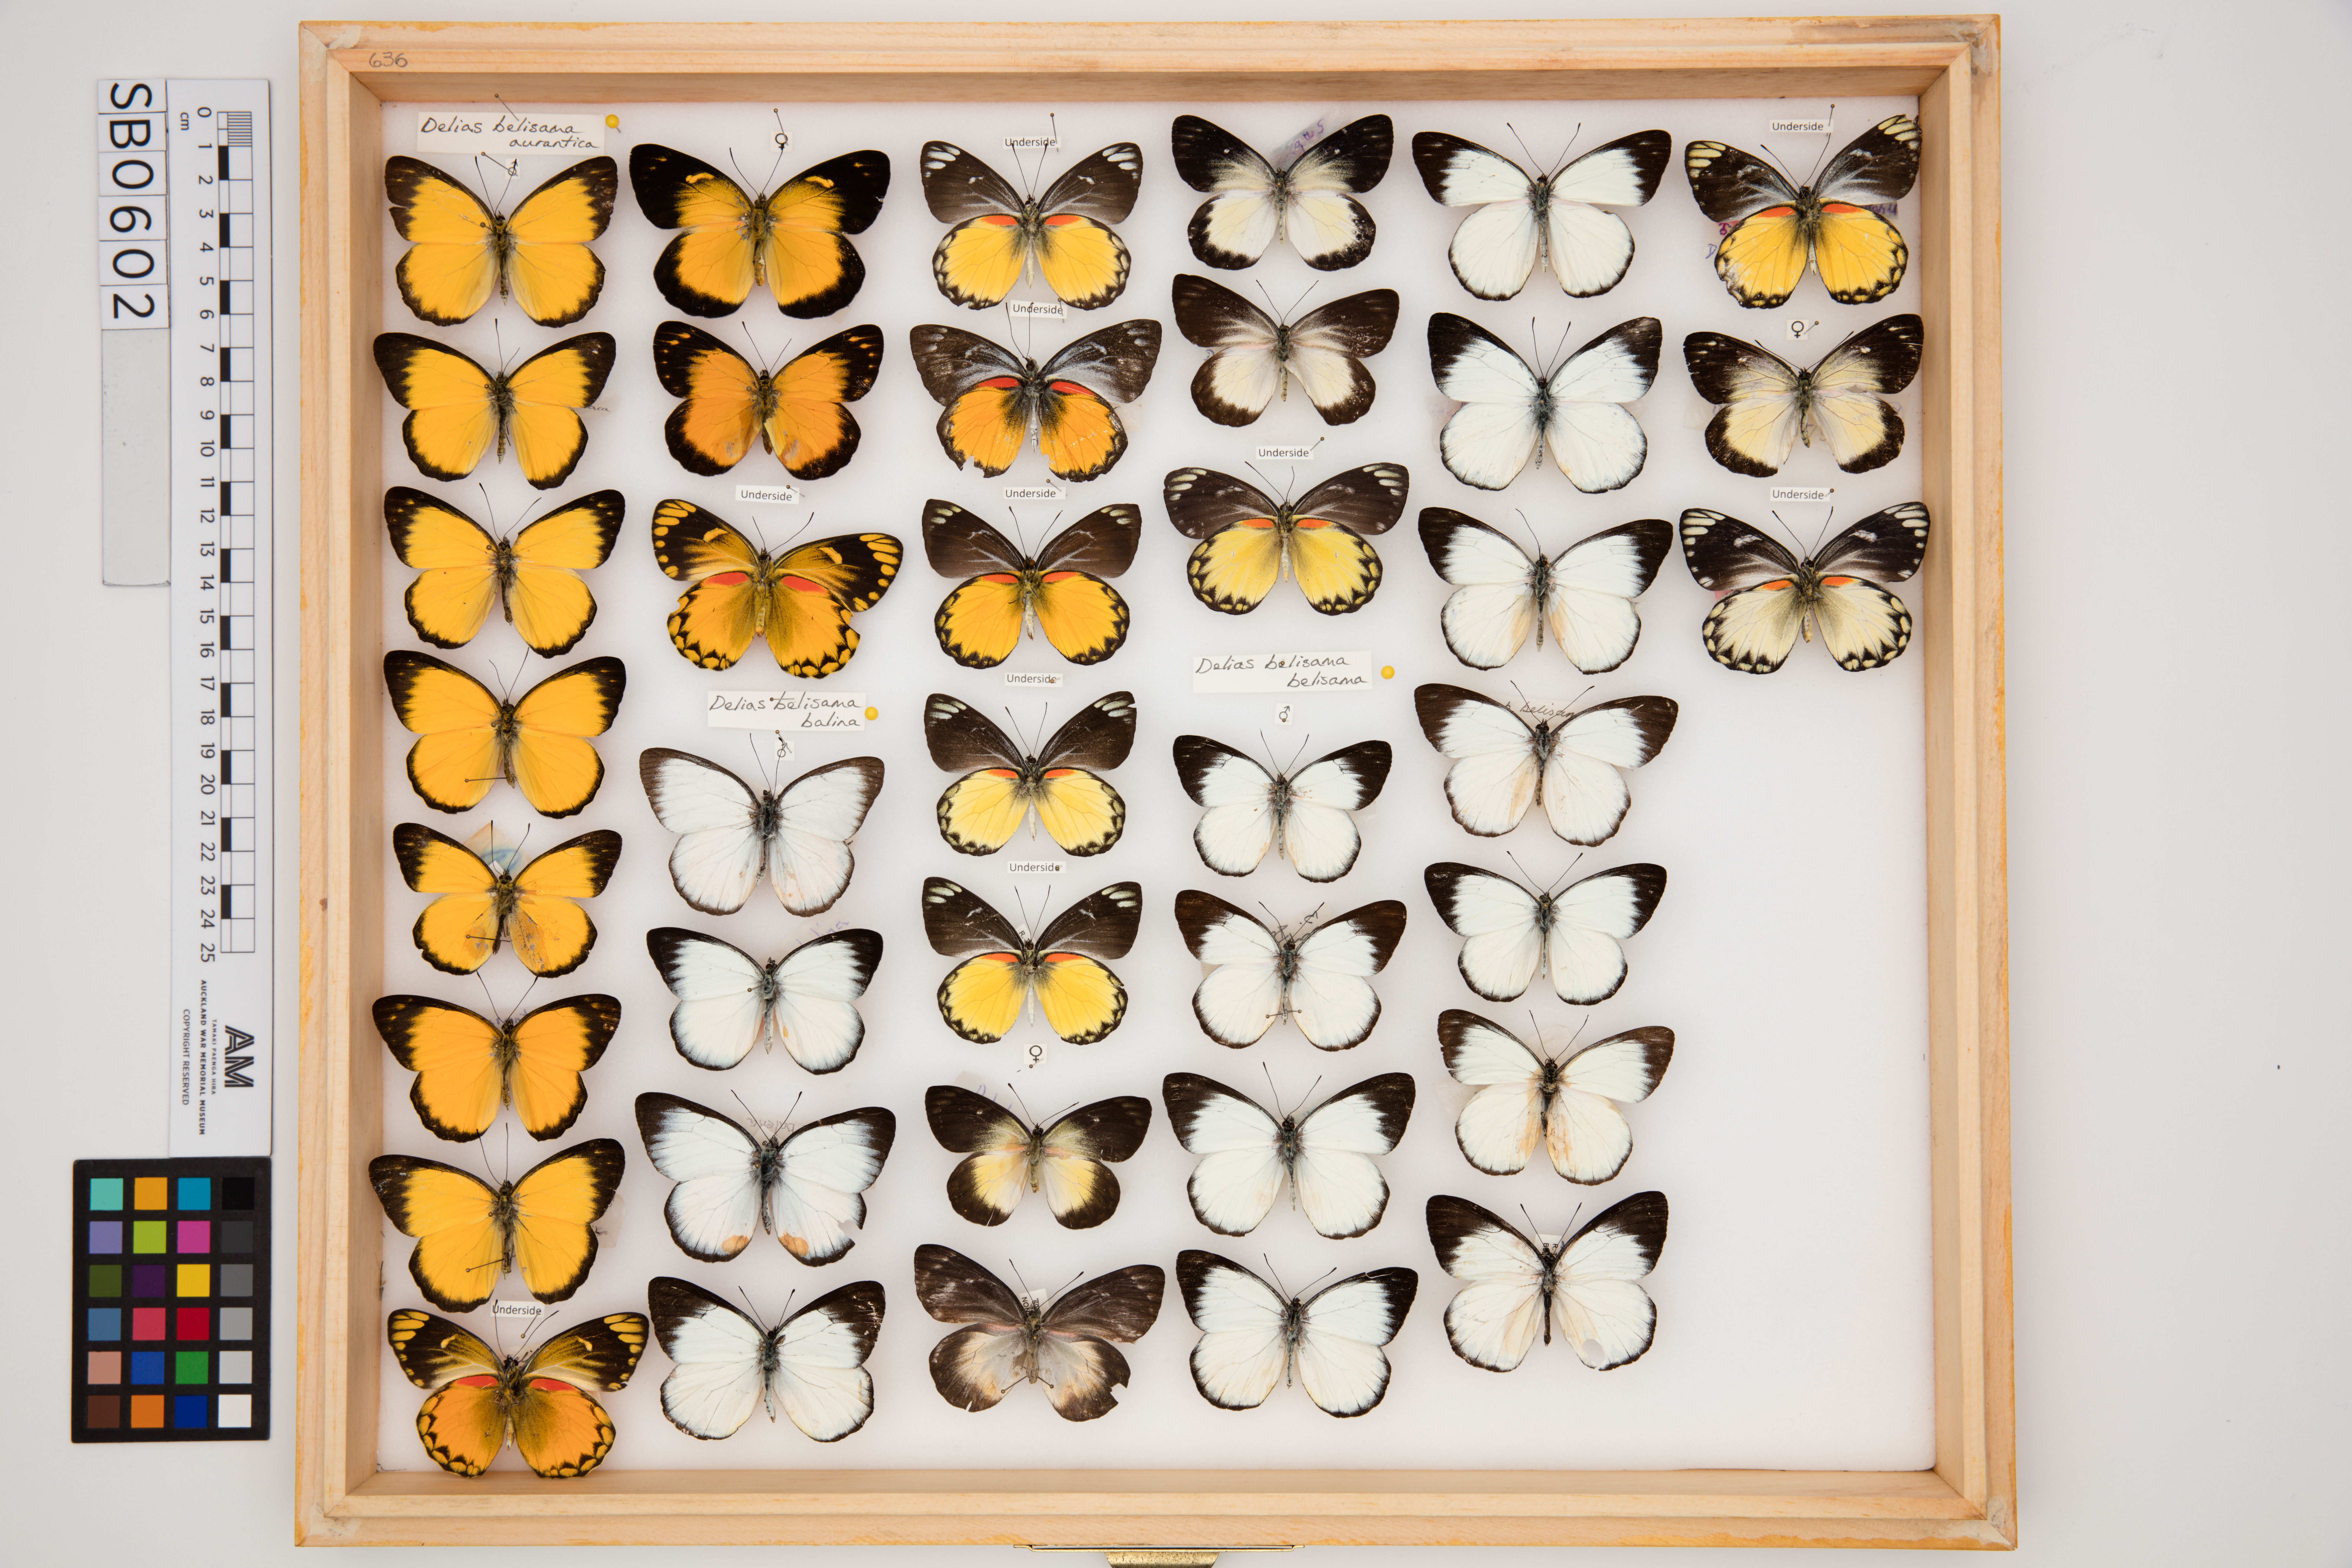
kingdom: Animalia
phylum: Arthropoda
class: Insecta
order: Lepidoptera
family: Pieridae
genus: Delias
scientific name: Delias belisama
